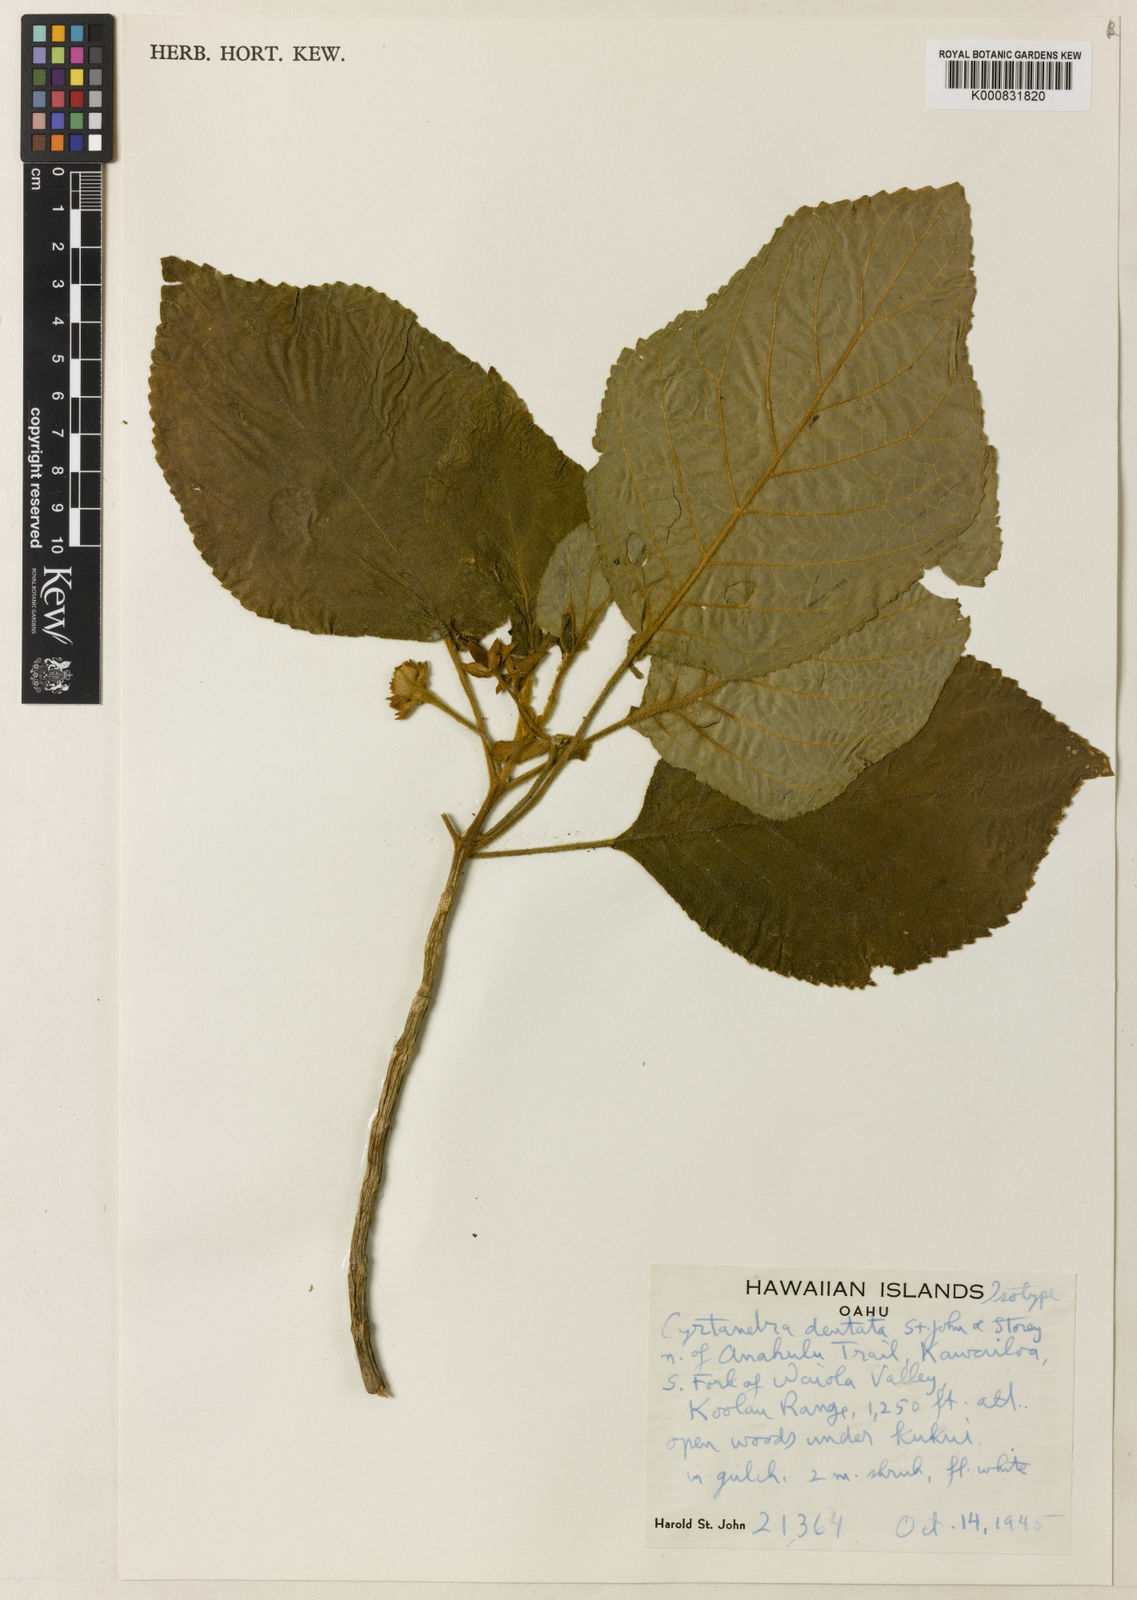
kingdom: Plantae
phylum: Tracheophyta
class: Magnoliopsida
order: Lamiales
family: Gesneriaceae
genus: Cyrtandra
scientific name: Cyrtandra dentata
